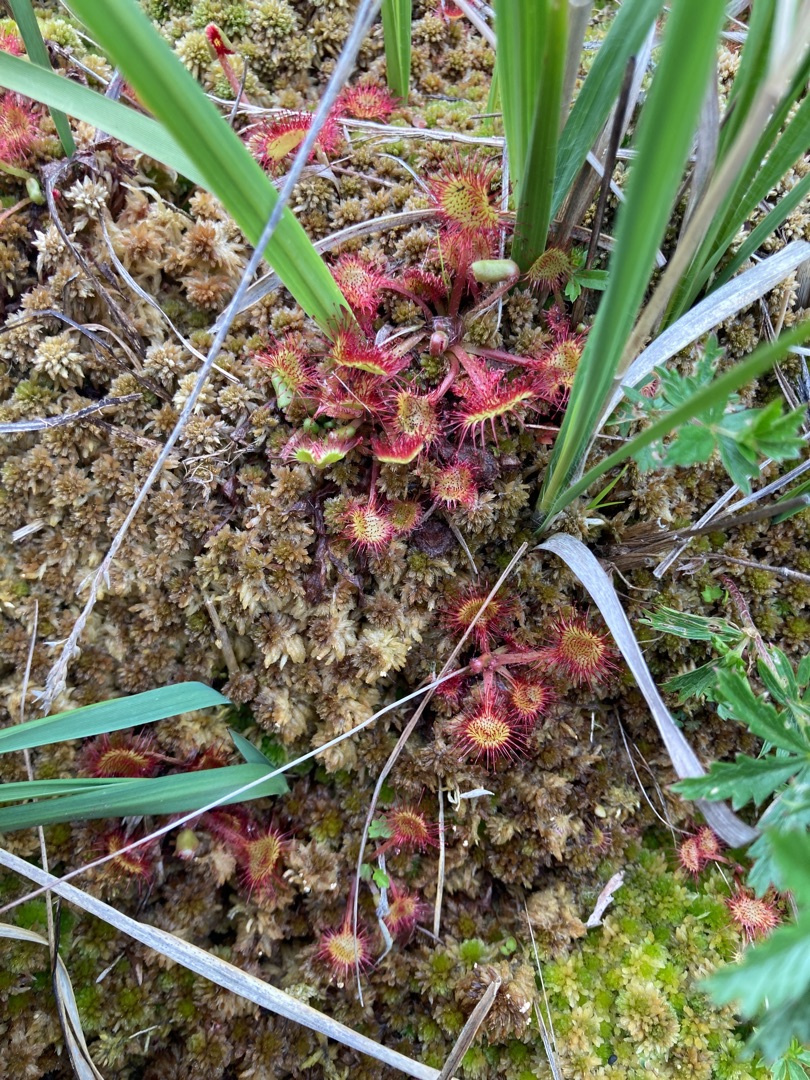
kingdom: Plantae
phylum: Tracheophyta
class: Magnoliopsida
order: Caryophyllales
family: Droseraceae
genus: Drosera
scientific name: Drosera rotundifolia
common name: Rundbladet soldug
